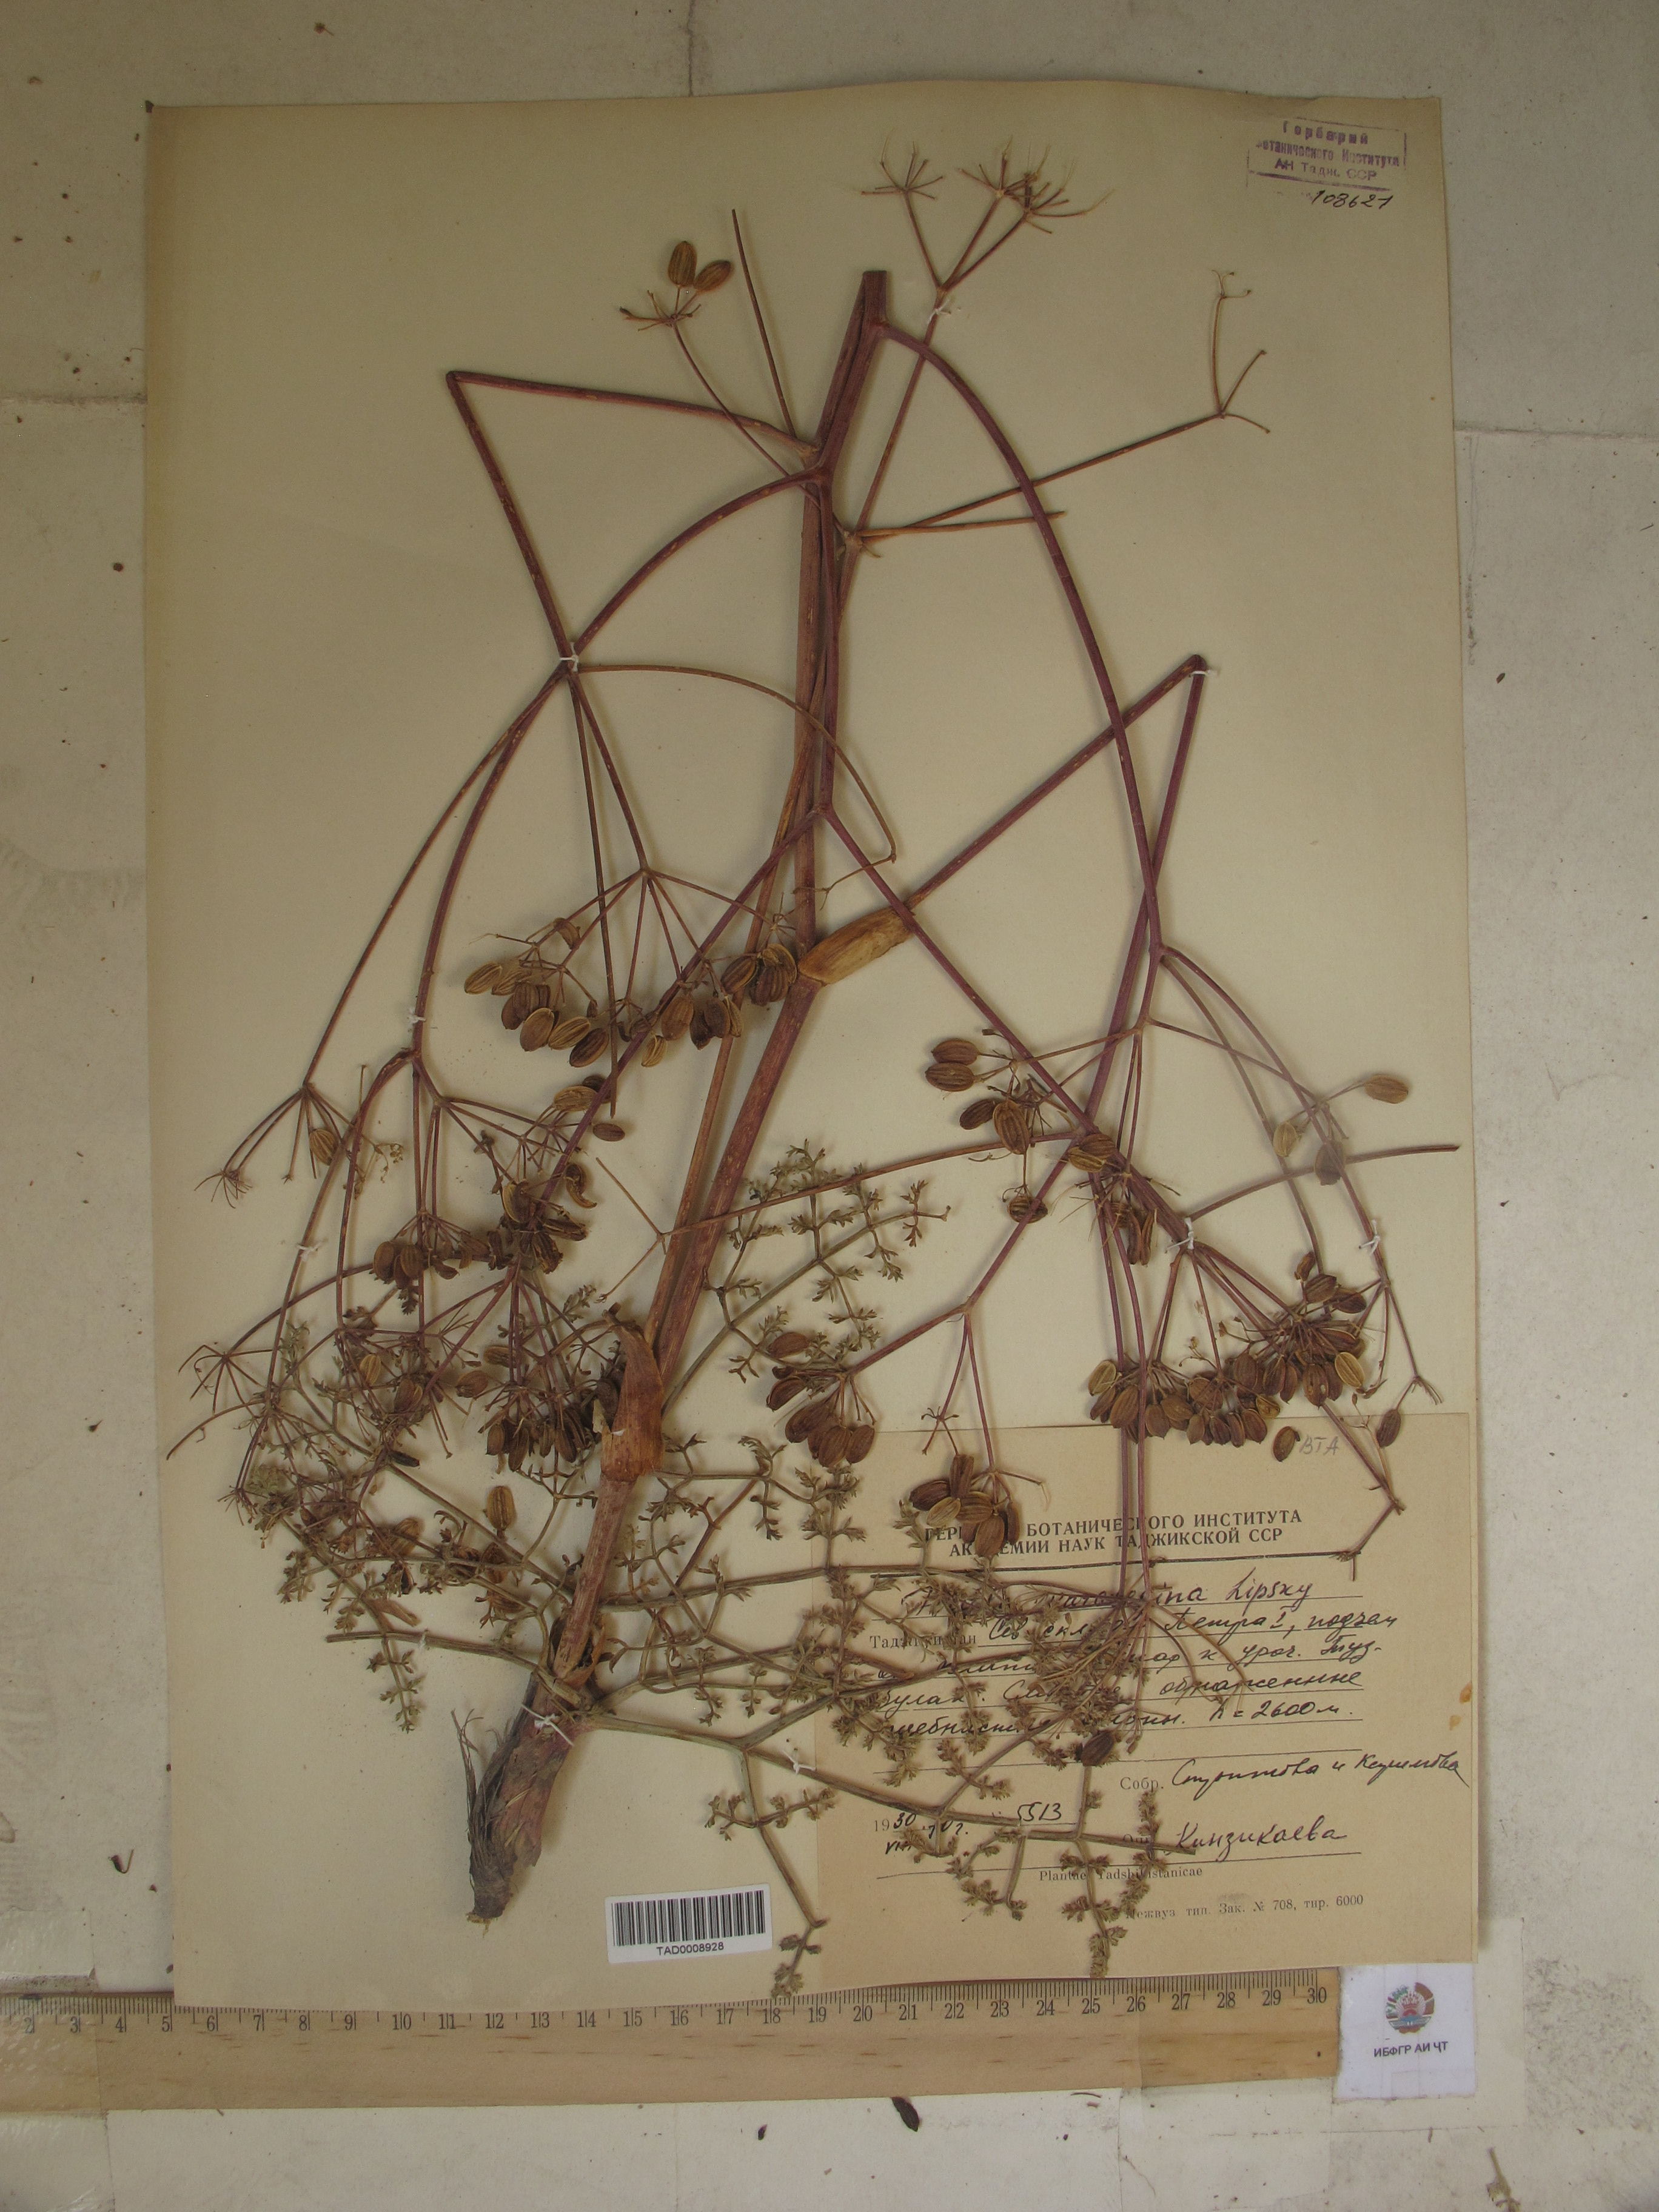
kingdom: Plantae
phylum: Tracheophyta
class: Magnoliopsida
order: Apiales
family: Apiaceae
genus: Ferula
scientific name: Ferula karategina
